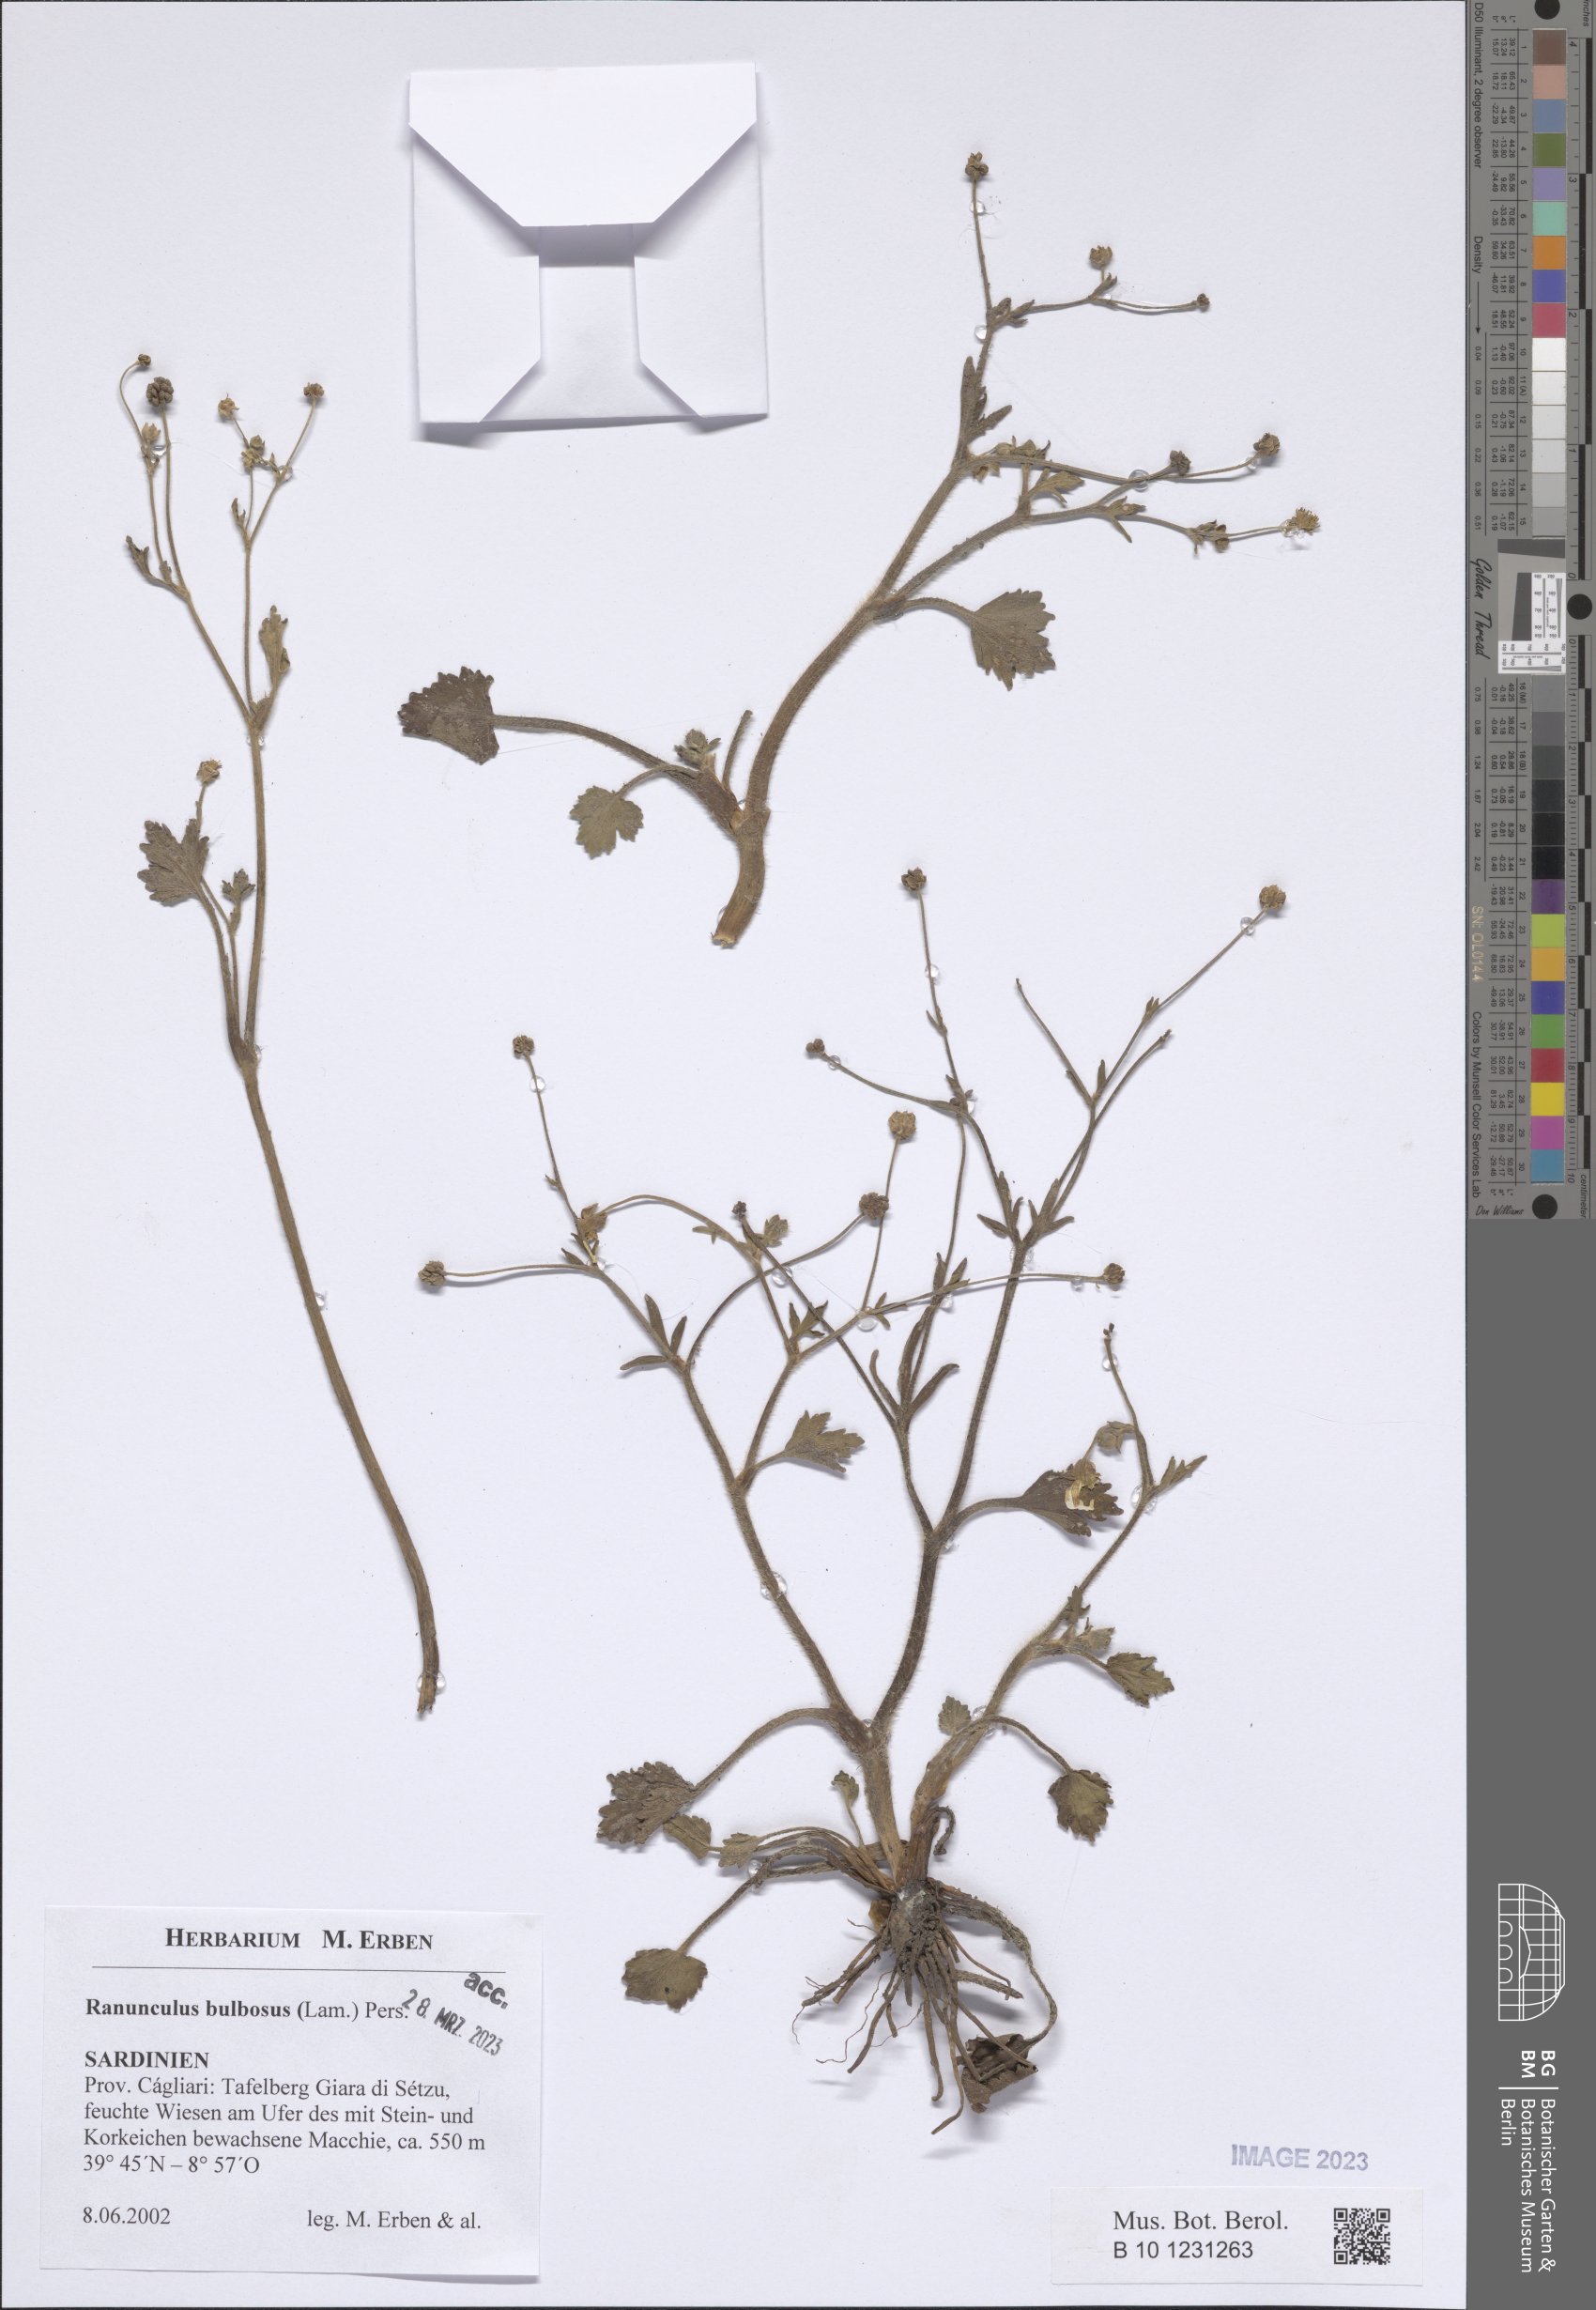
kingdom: Plantae
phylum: Tracheophyta
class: Magnoliopsida
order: Ranunculales
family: Ranunculaceae
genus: Ranunculus
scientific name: Ranunculus bulbosus
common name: Bulbous buttercup
